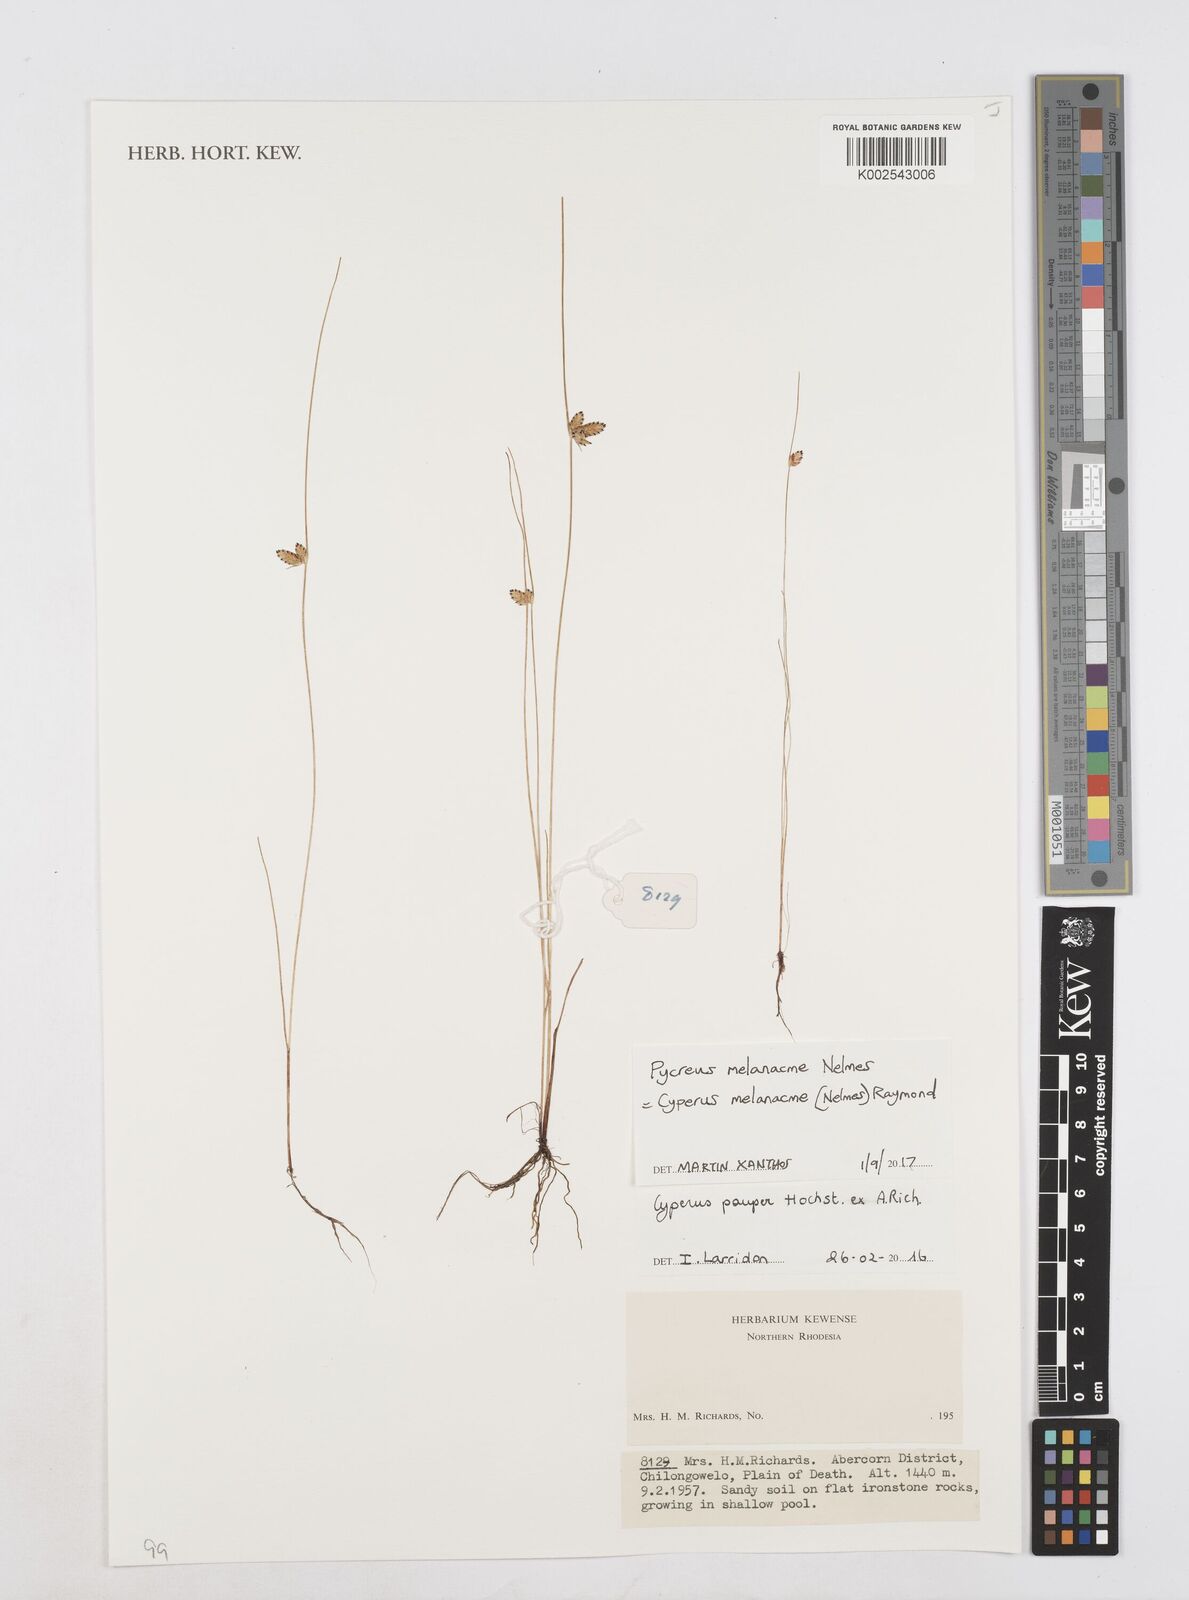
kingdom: Plantae
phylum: Tracheophyta
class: Liliopsida
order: Poales
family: Cyperaceae
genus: Cyperus
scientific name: Cyperus melanacme
